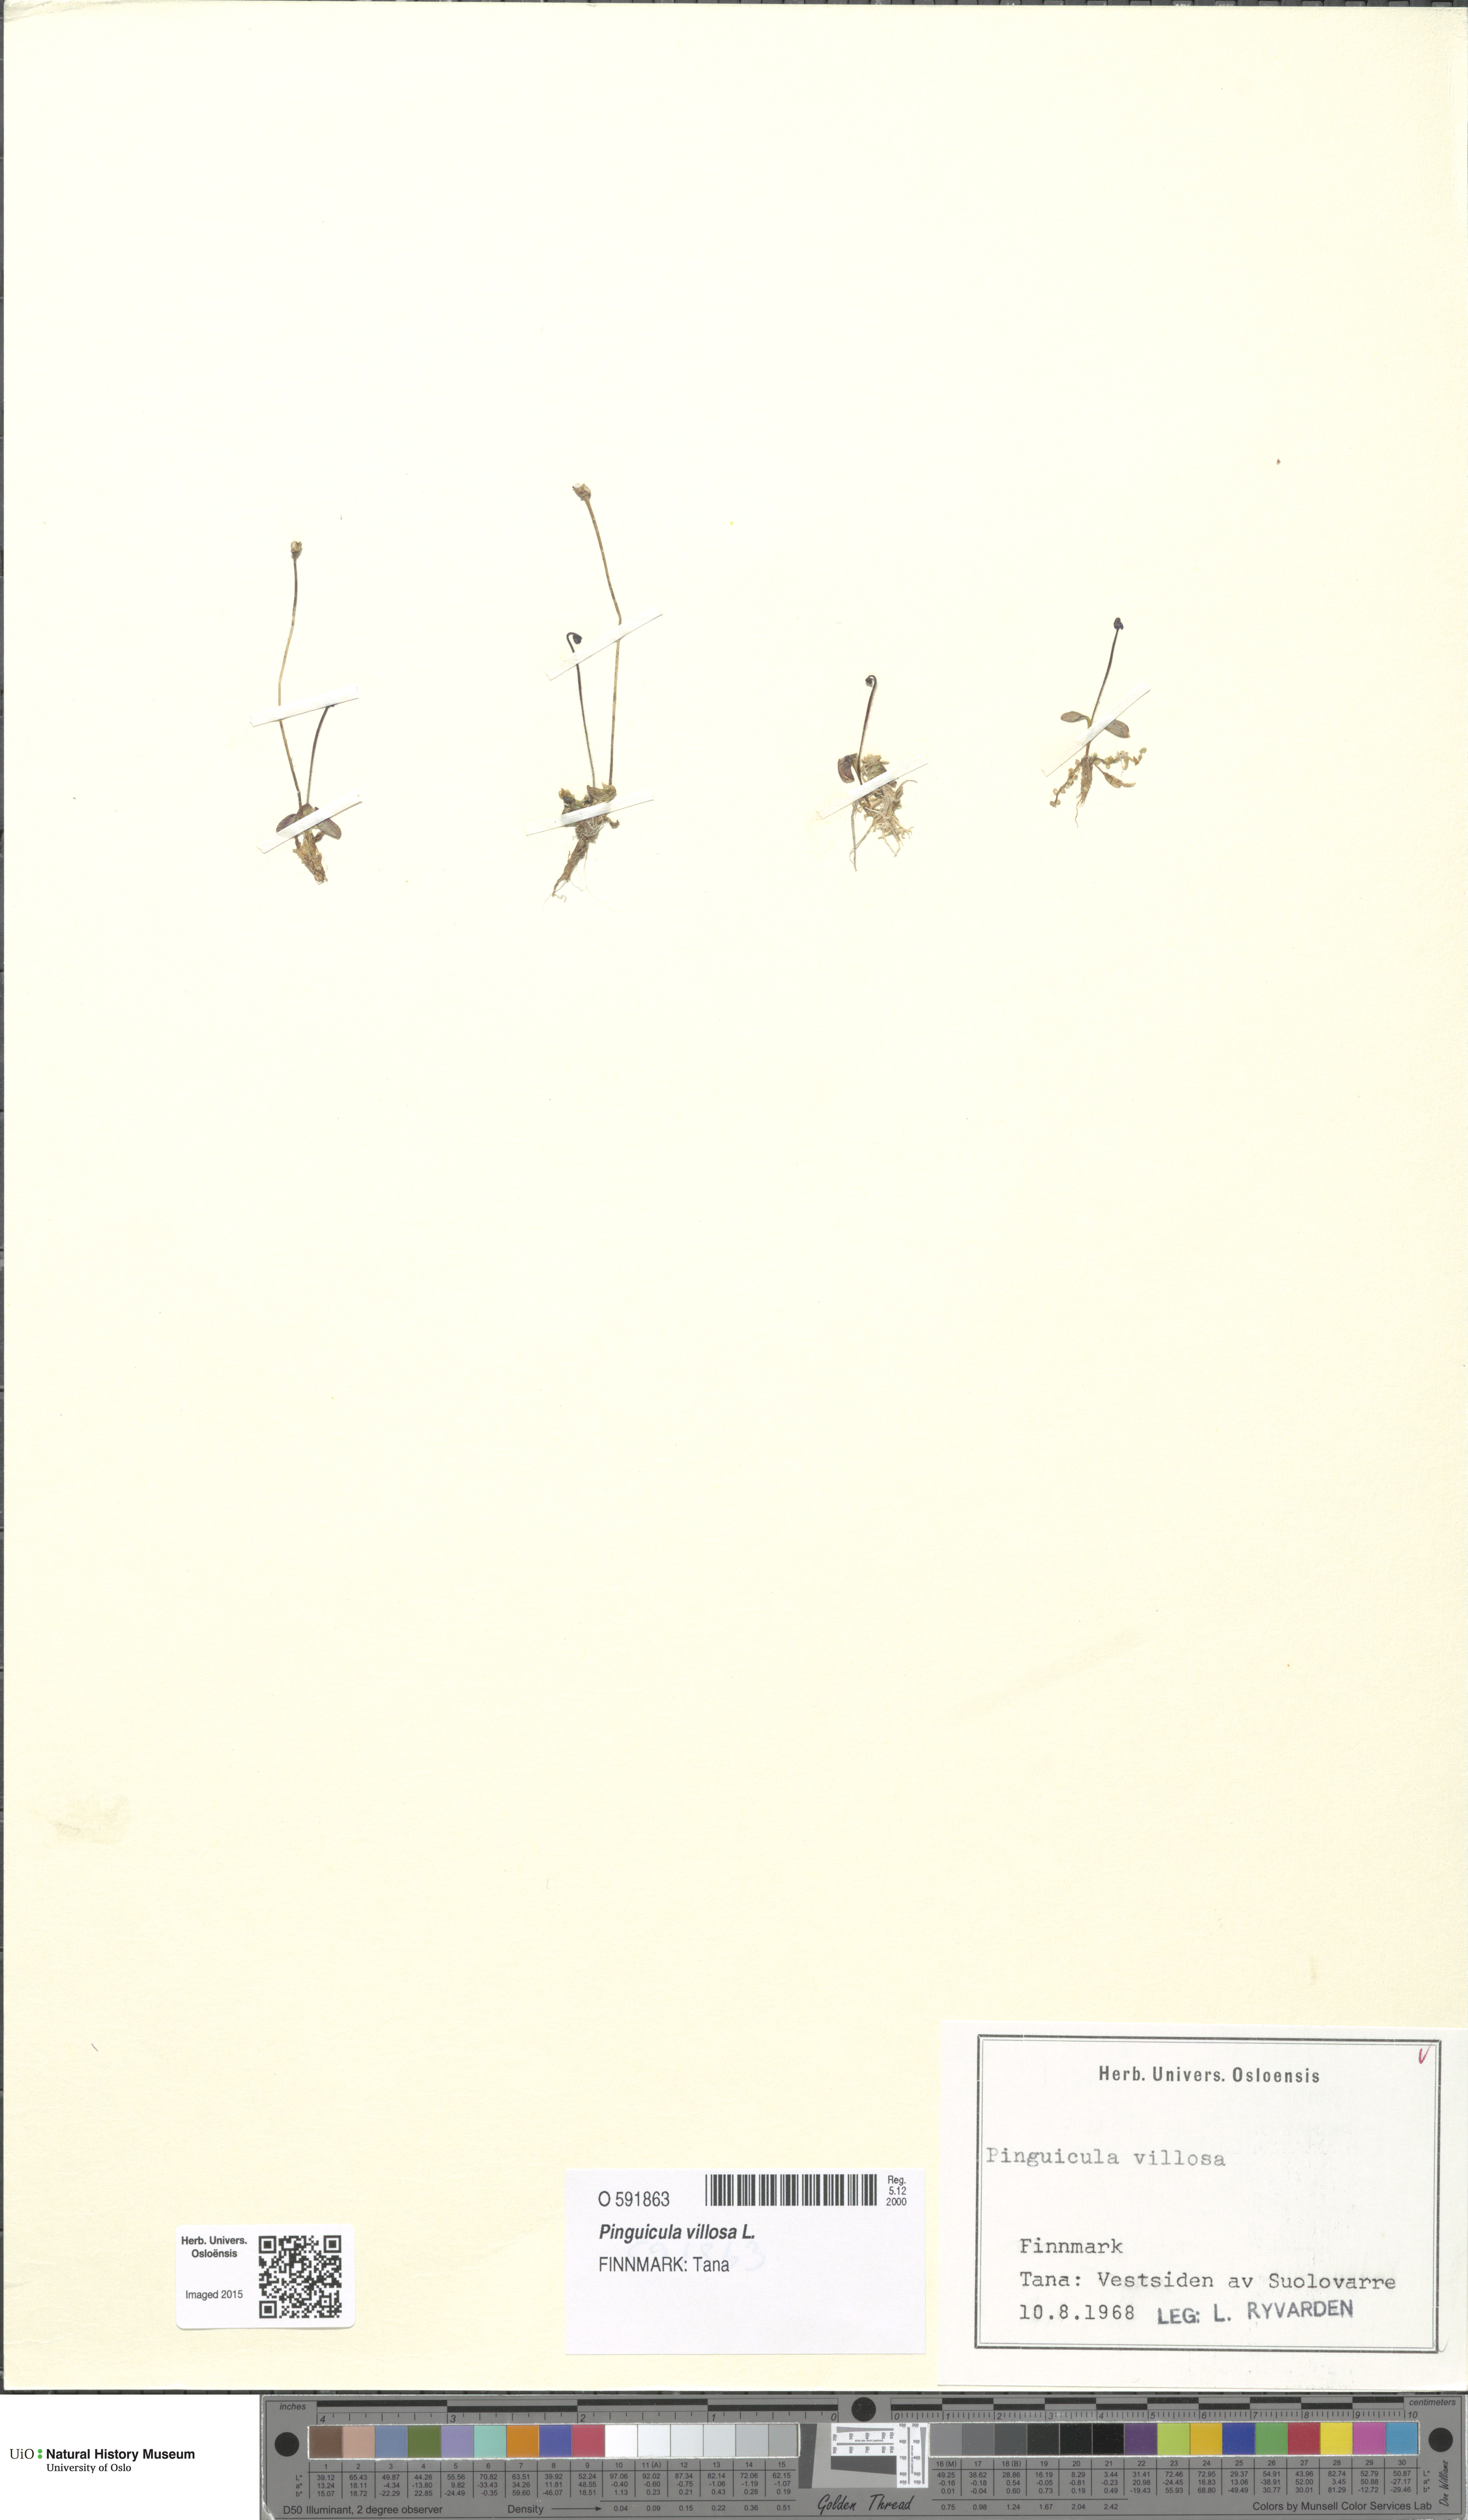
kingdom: Plantae
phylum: Tracheophyta
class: Magnoliopsida
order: Lamiales
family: Lentibulariaceae
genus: Pinguicula
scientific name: Pinguicula villosa
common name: Hairy butterwort
